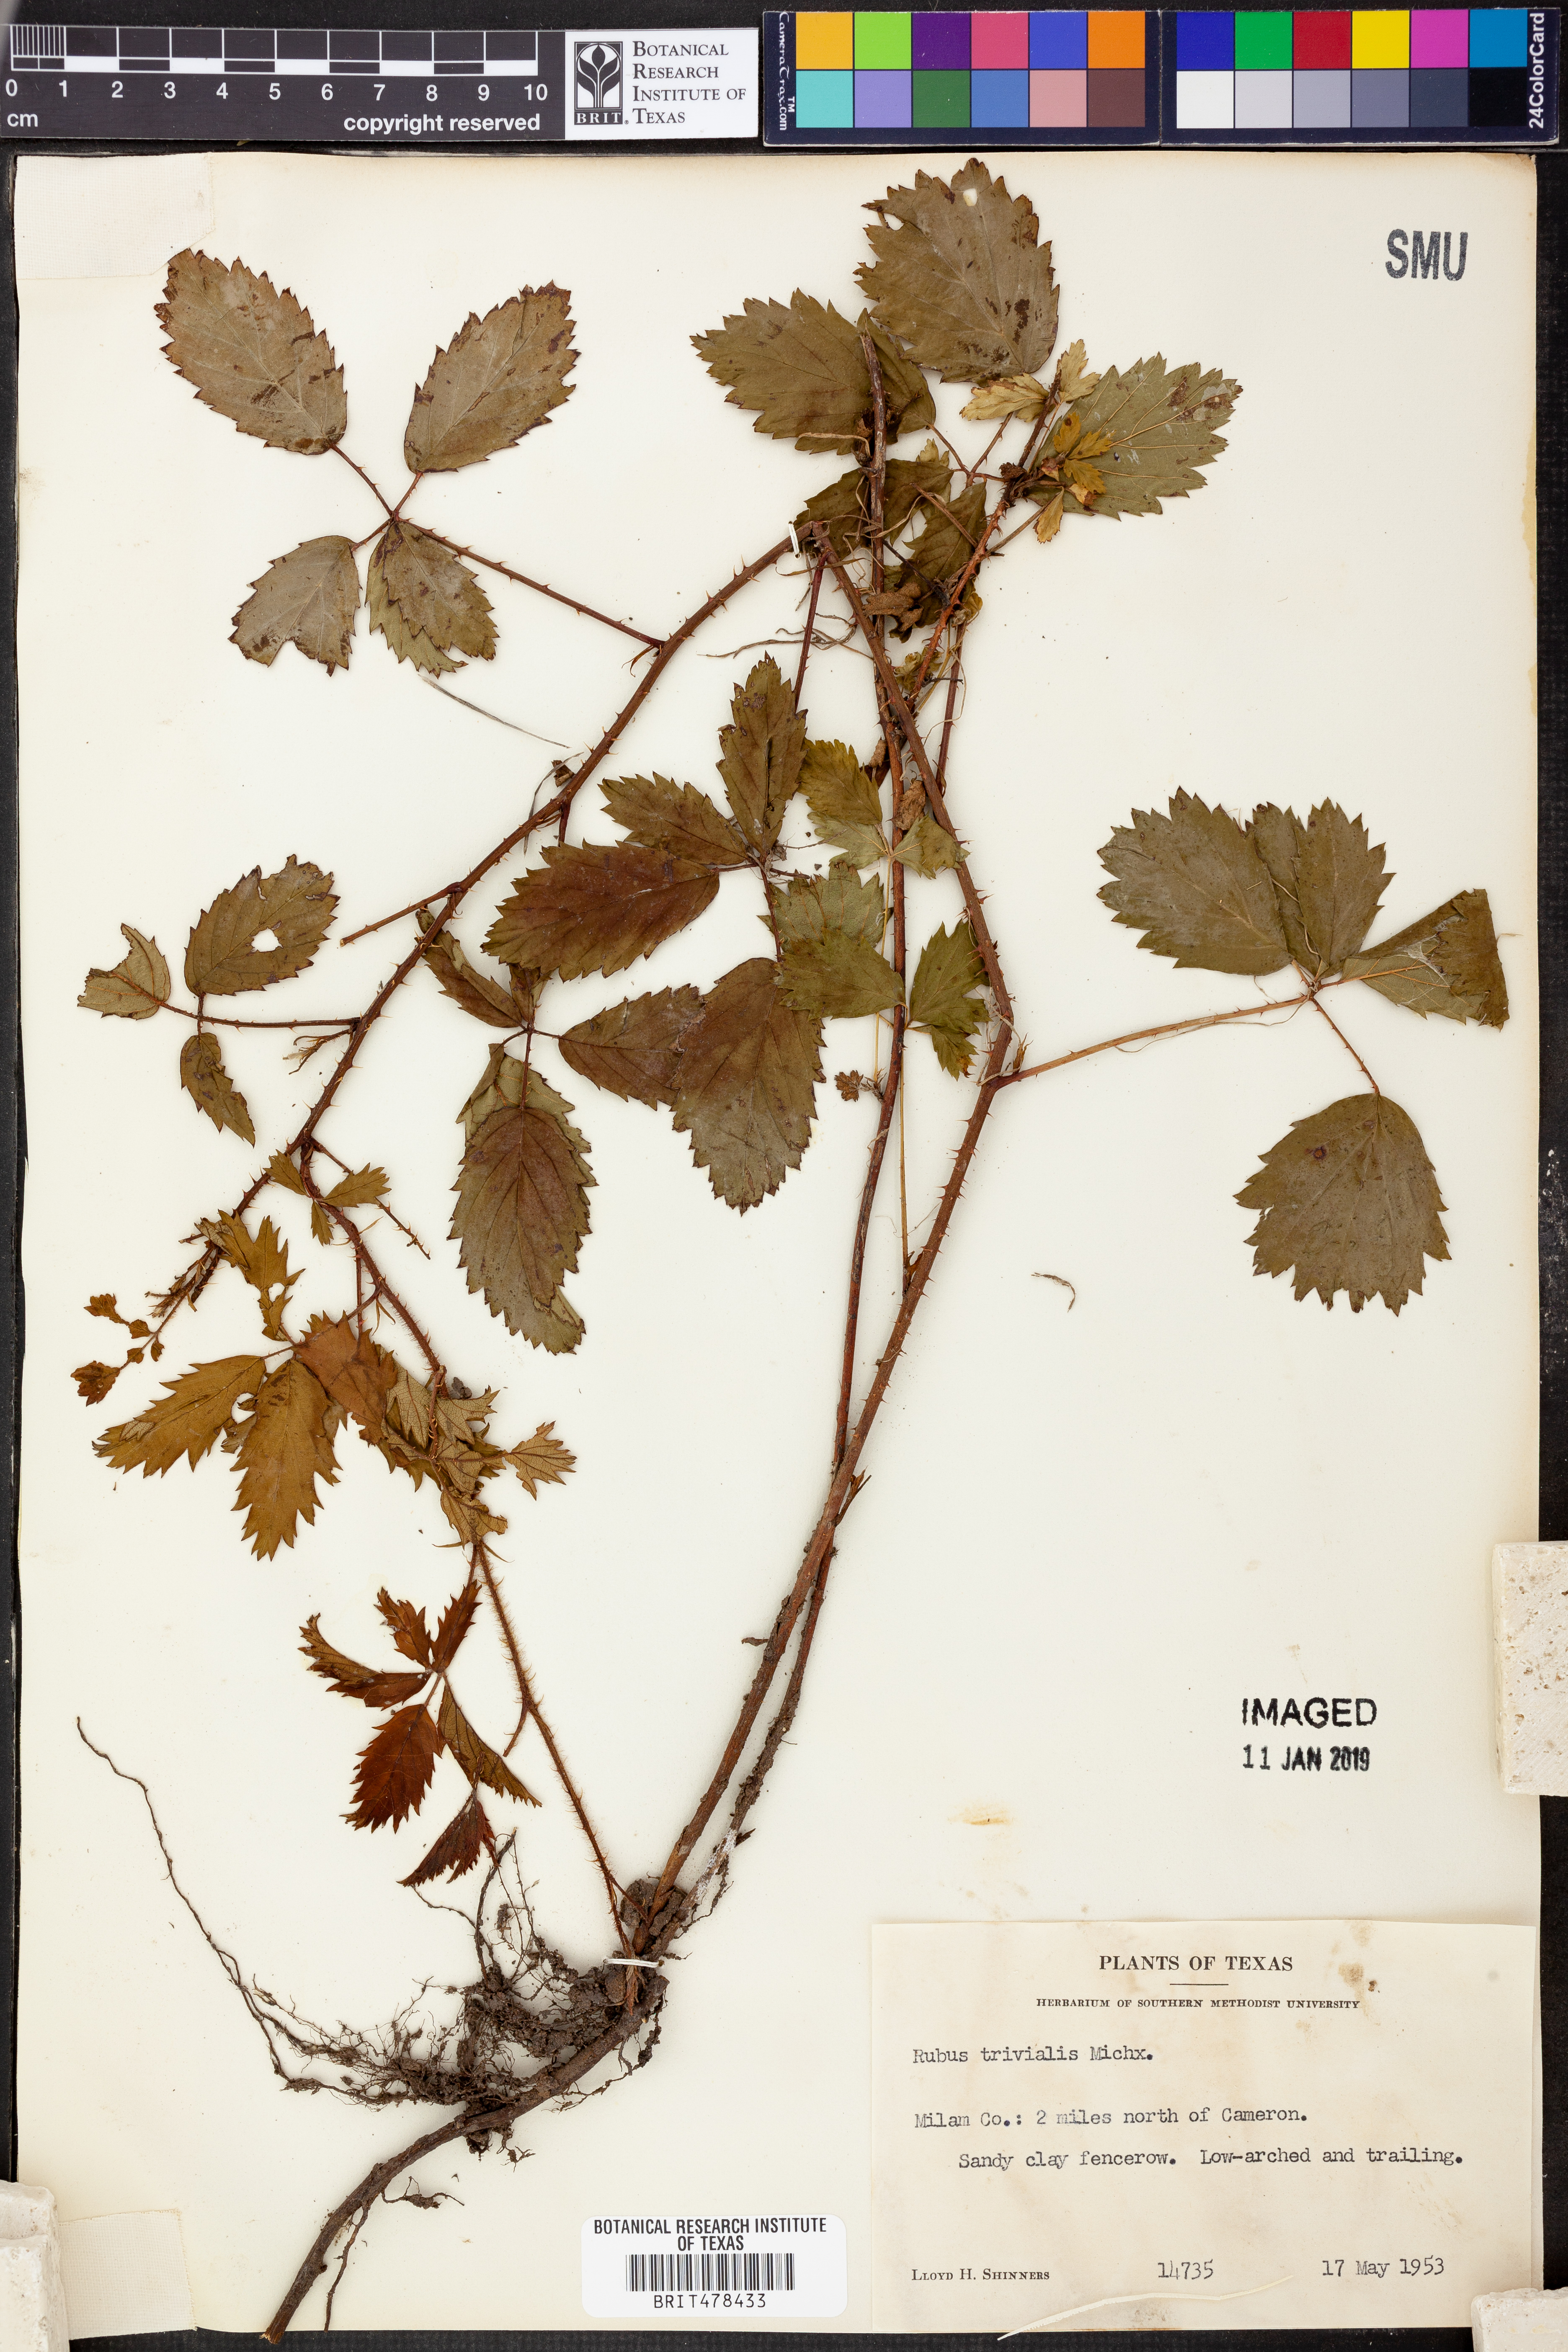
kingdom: Plantae
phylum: Tracheophyta
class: Magnoliopsida
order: Rosales
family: Rosaceae
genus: Rubus
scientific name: Rubus trivialis
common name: Southern dewberry
